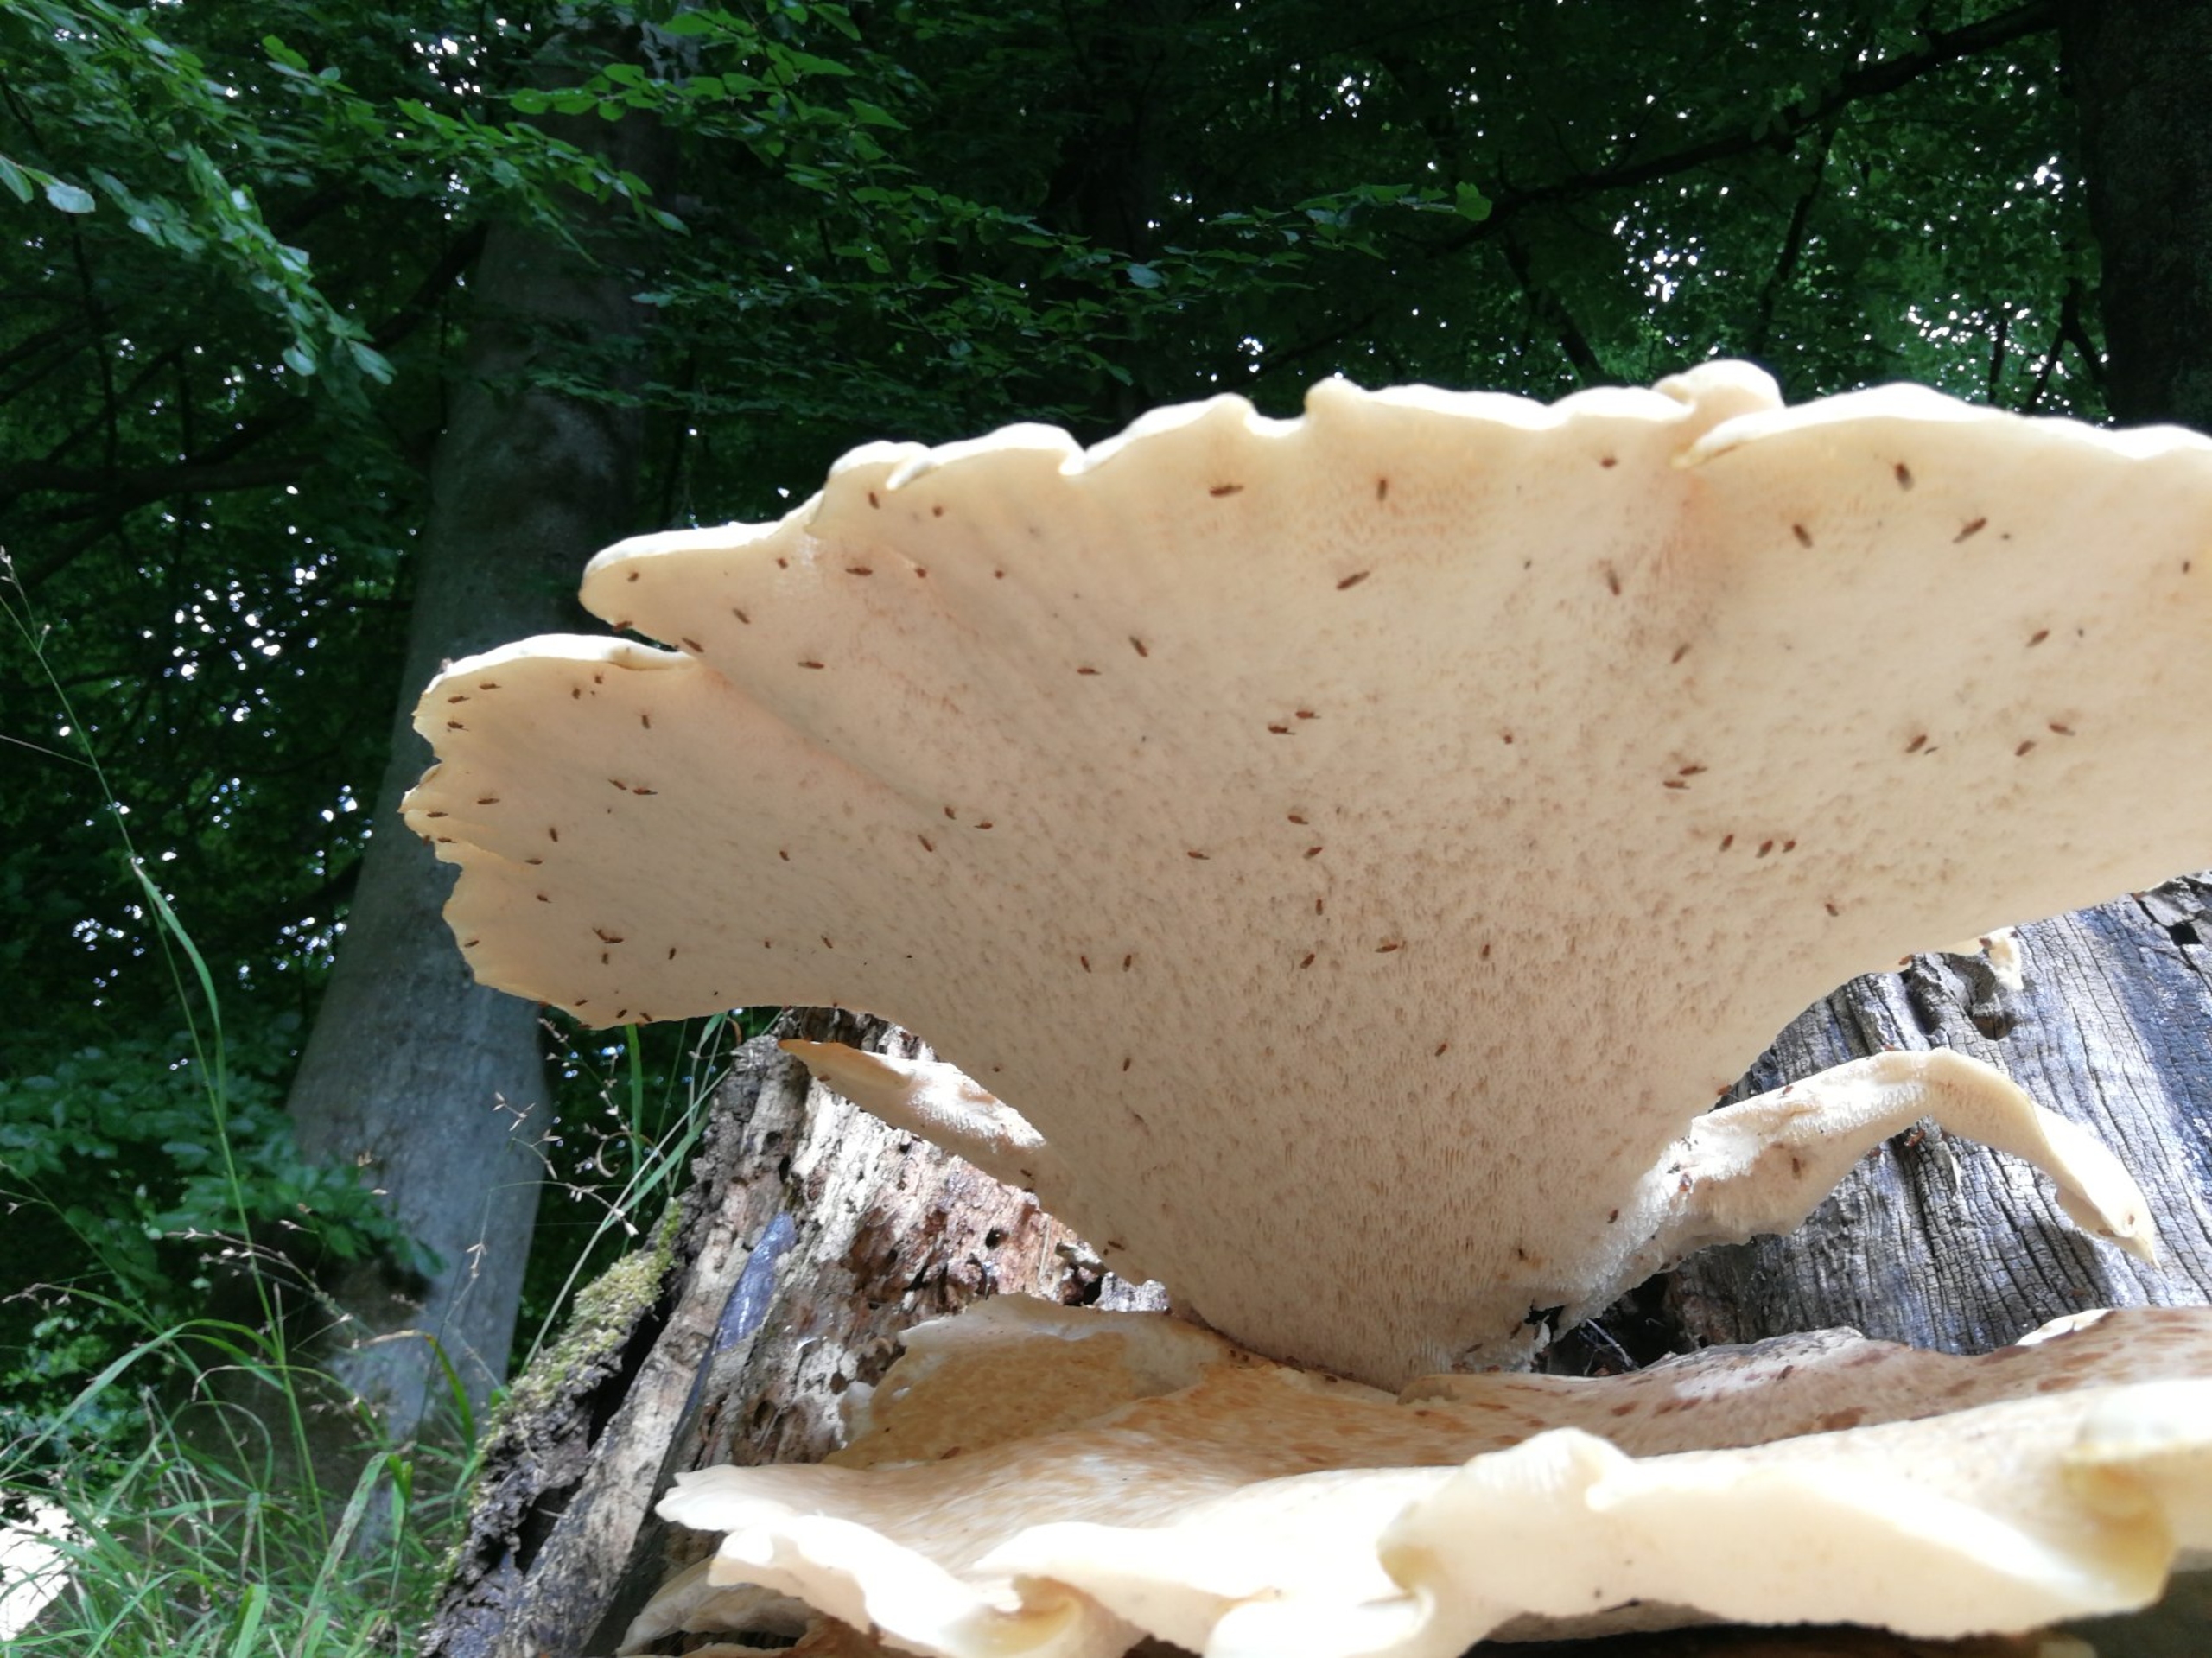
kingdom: Fungi
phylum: Basidiomycota
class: Agaricomycetes
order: Polyporales
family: Polyporaceae
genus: Cerioporus
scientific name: Cerioporus squamosus
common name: Skællet stilkporesvamp
